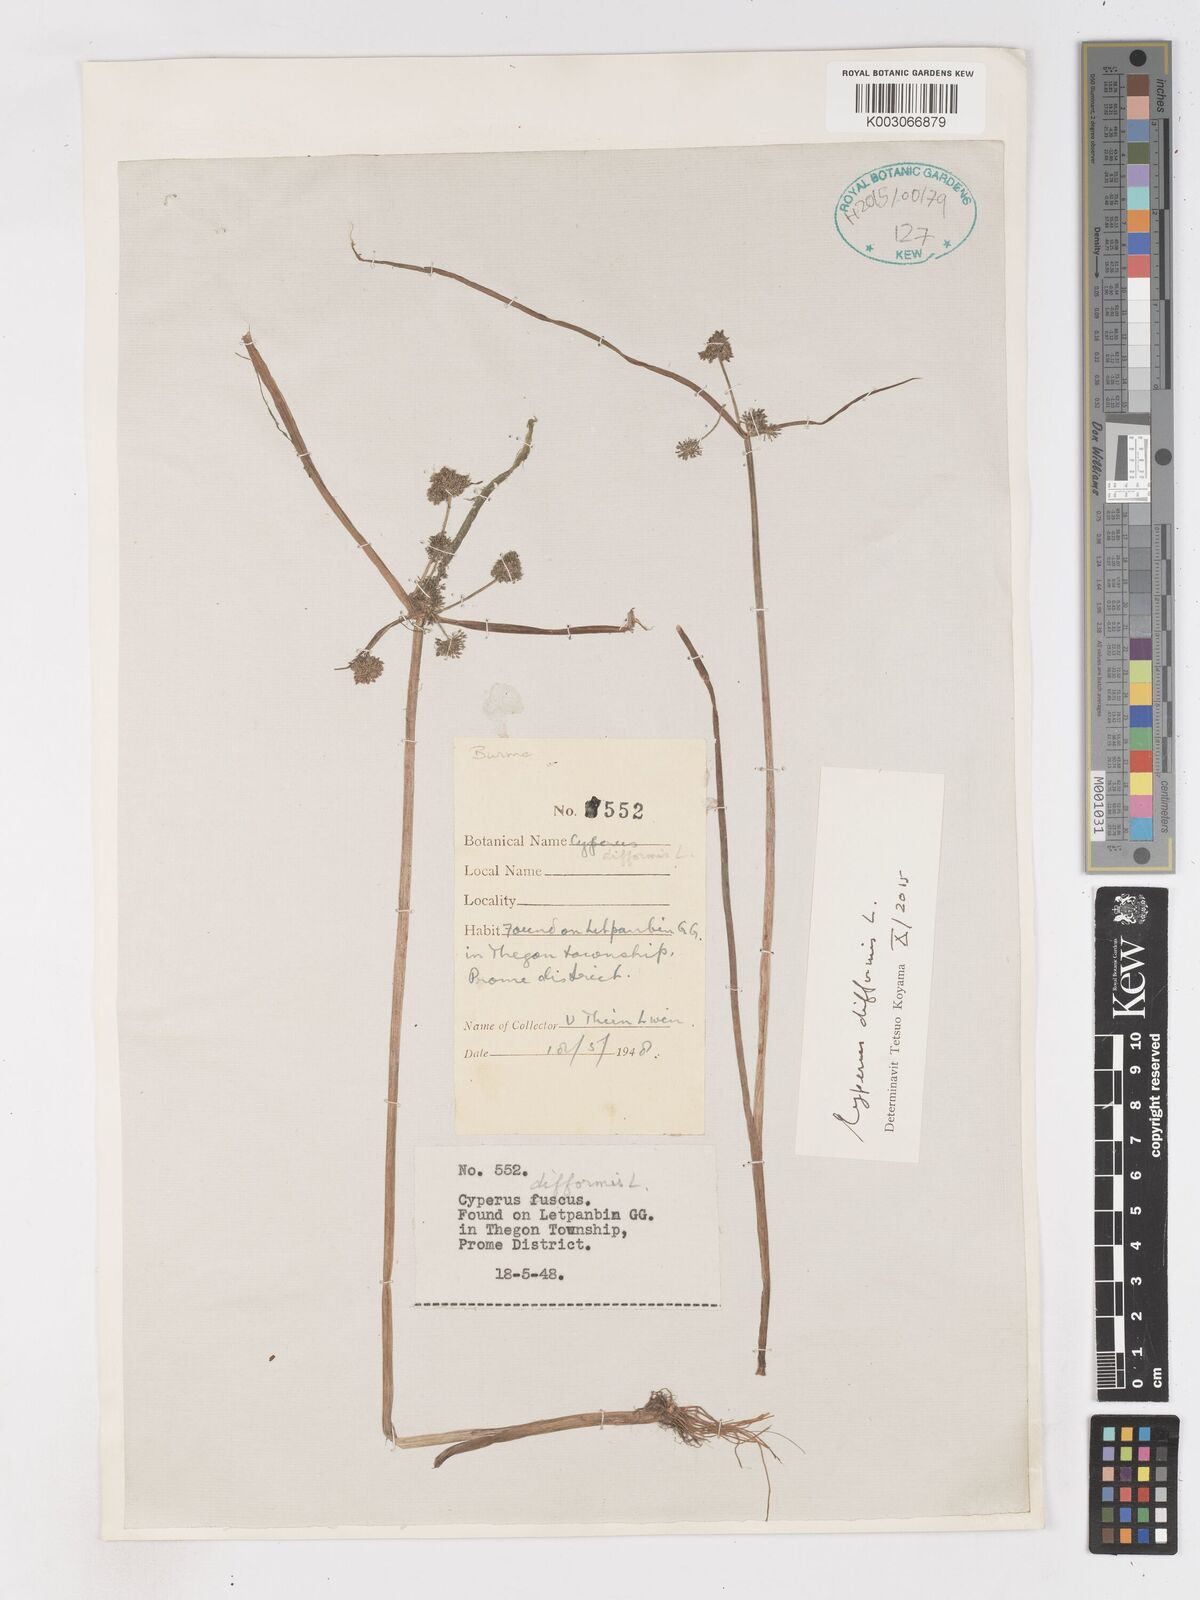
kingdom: Plantae
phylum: Tracheophyta
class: Liliopsida
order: Poales
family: Cyperaceae
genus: Cyperus
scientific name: Cyperus difformis
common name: Variable flatsedge
